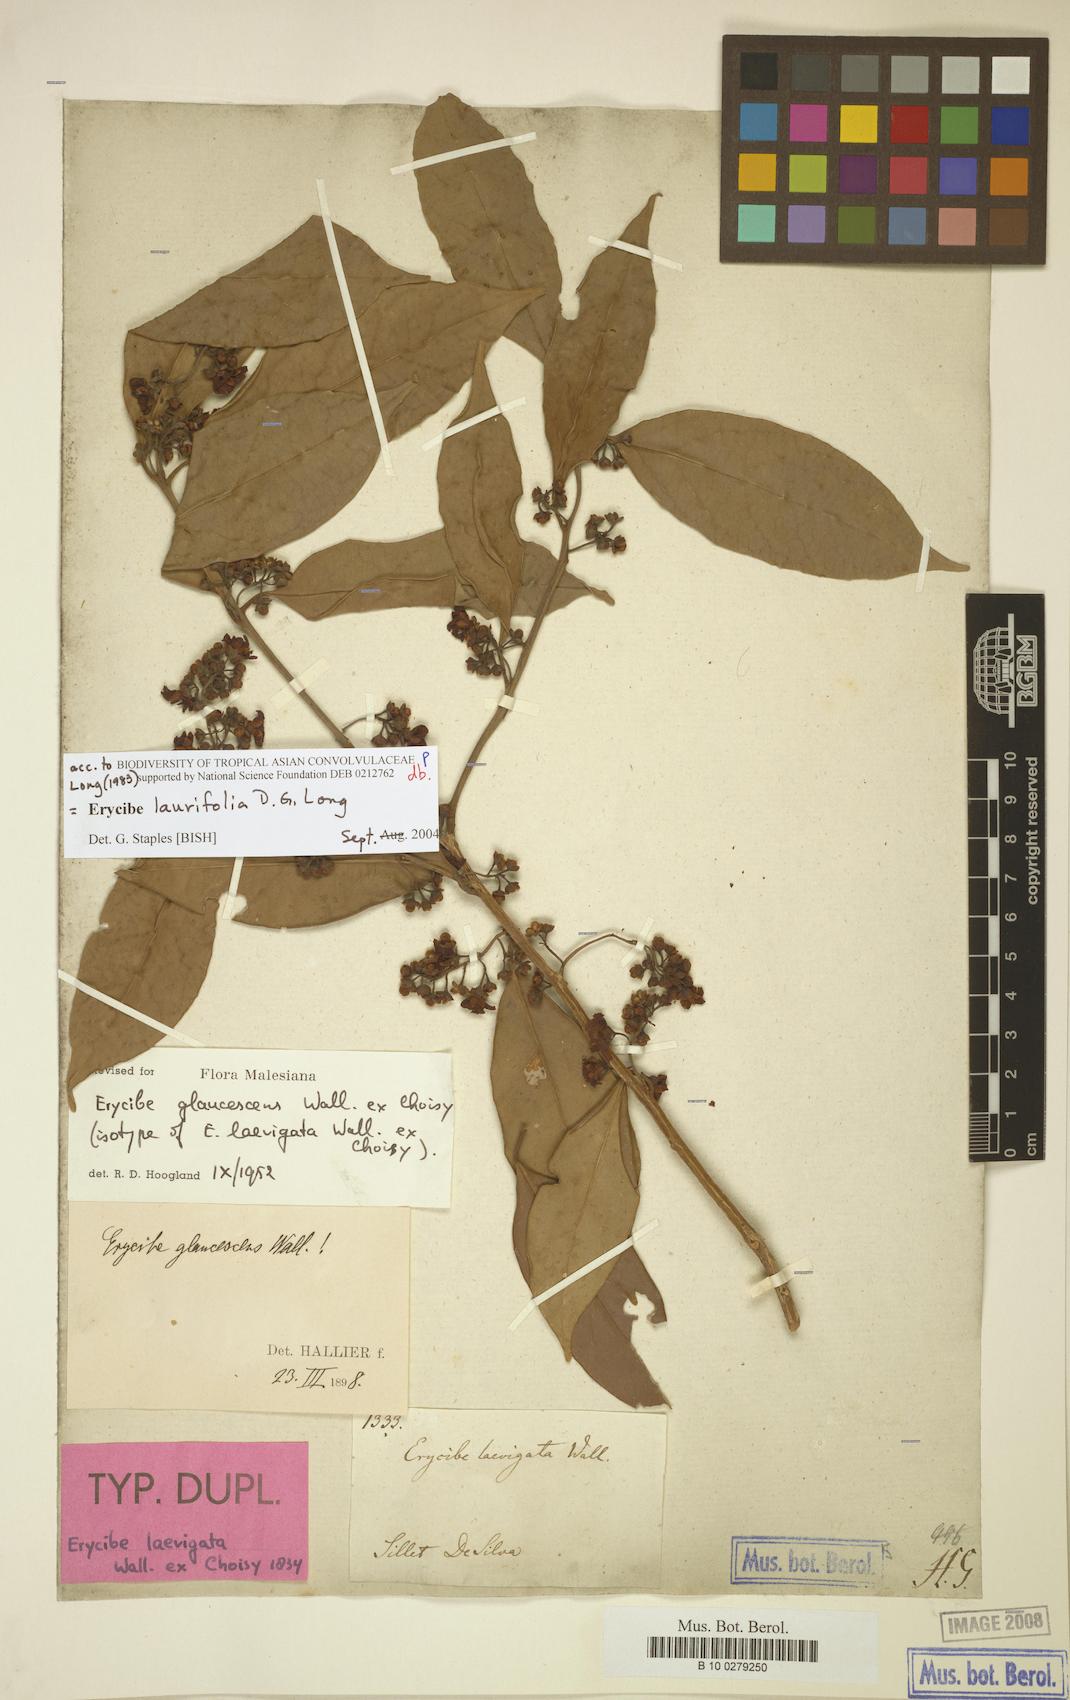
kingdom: Plantae
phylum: Tracheophyta
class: Magnoliopsida
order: Solanales
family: Convolvulaceae
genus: Erycibe
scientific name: Erycibe laurifolia
